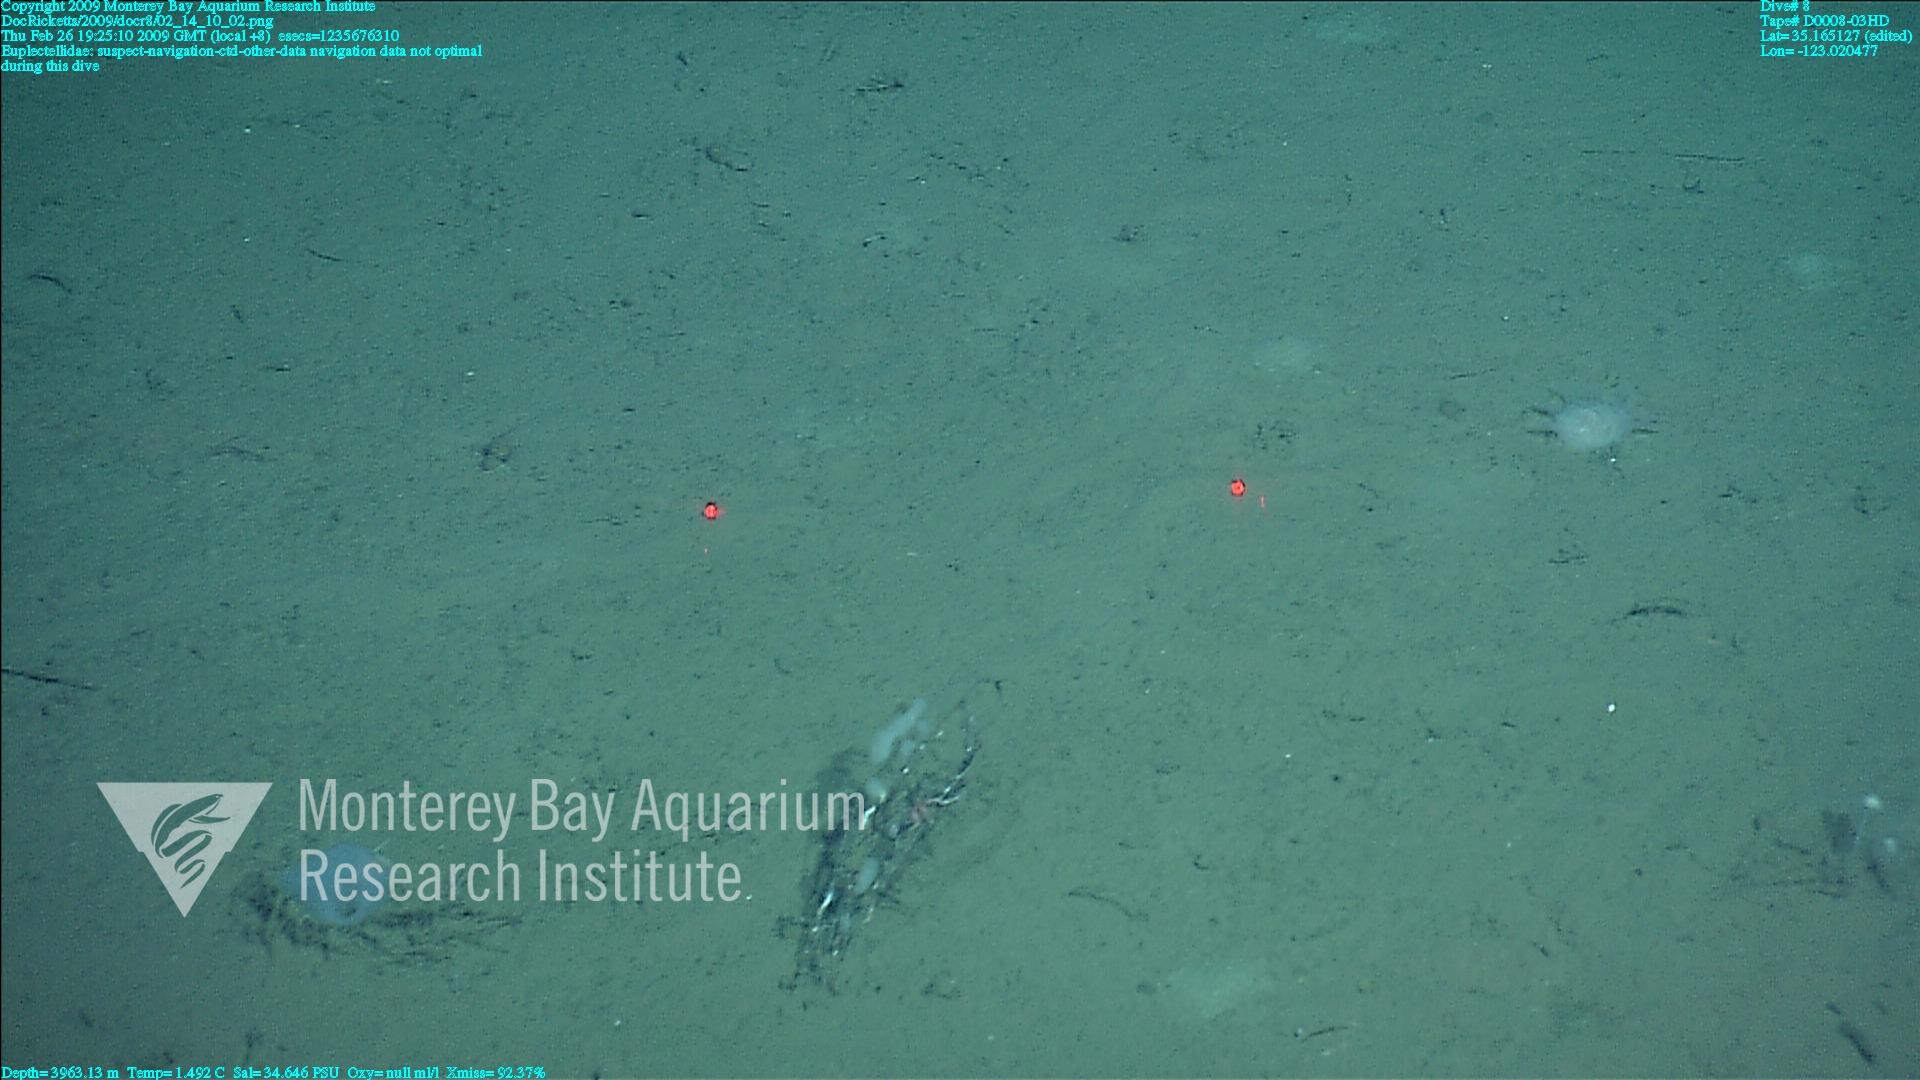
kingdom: Animalia
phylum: Porifera
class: Hexactinellida
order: Lyssacinosida
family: Euplectellidae
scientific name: Euplectellidae
